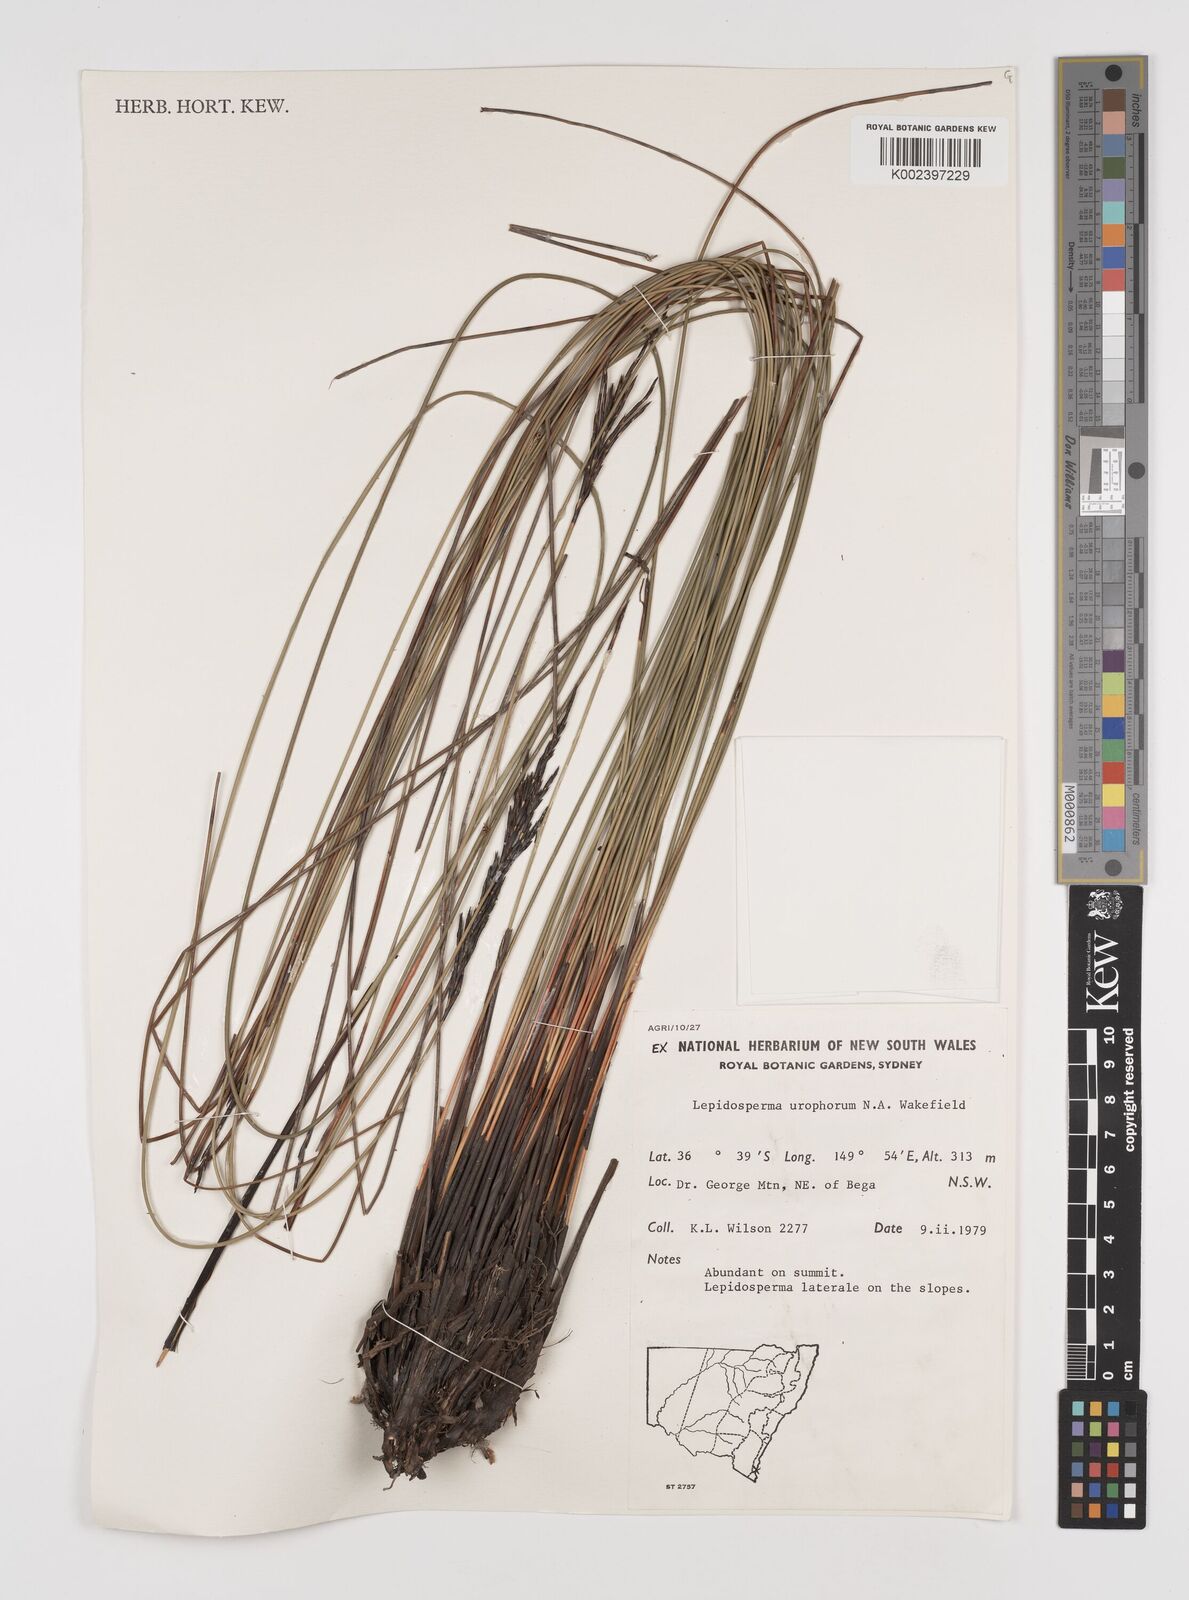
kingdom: Plantae
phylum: Tracheophyta
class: Liliopsida
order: Poales
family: Cyperaceae
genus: Lepidosperma
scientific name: Lepidosperma urophorum
